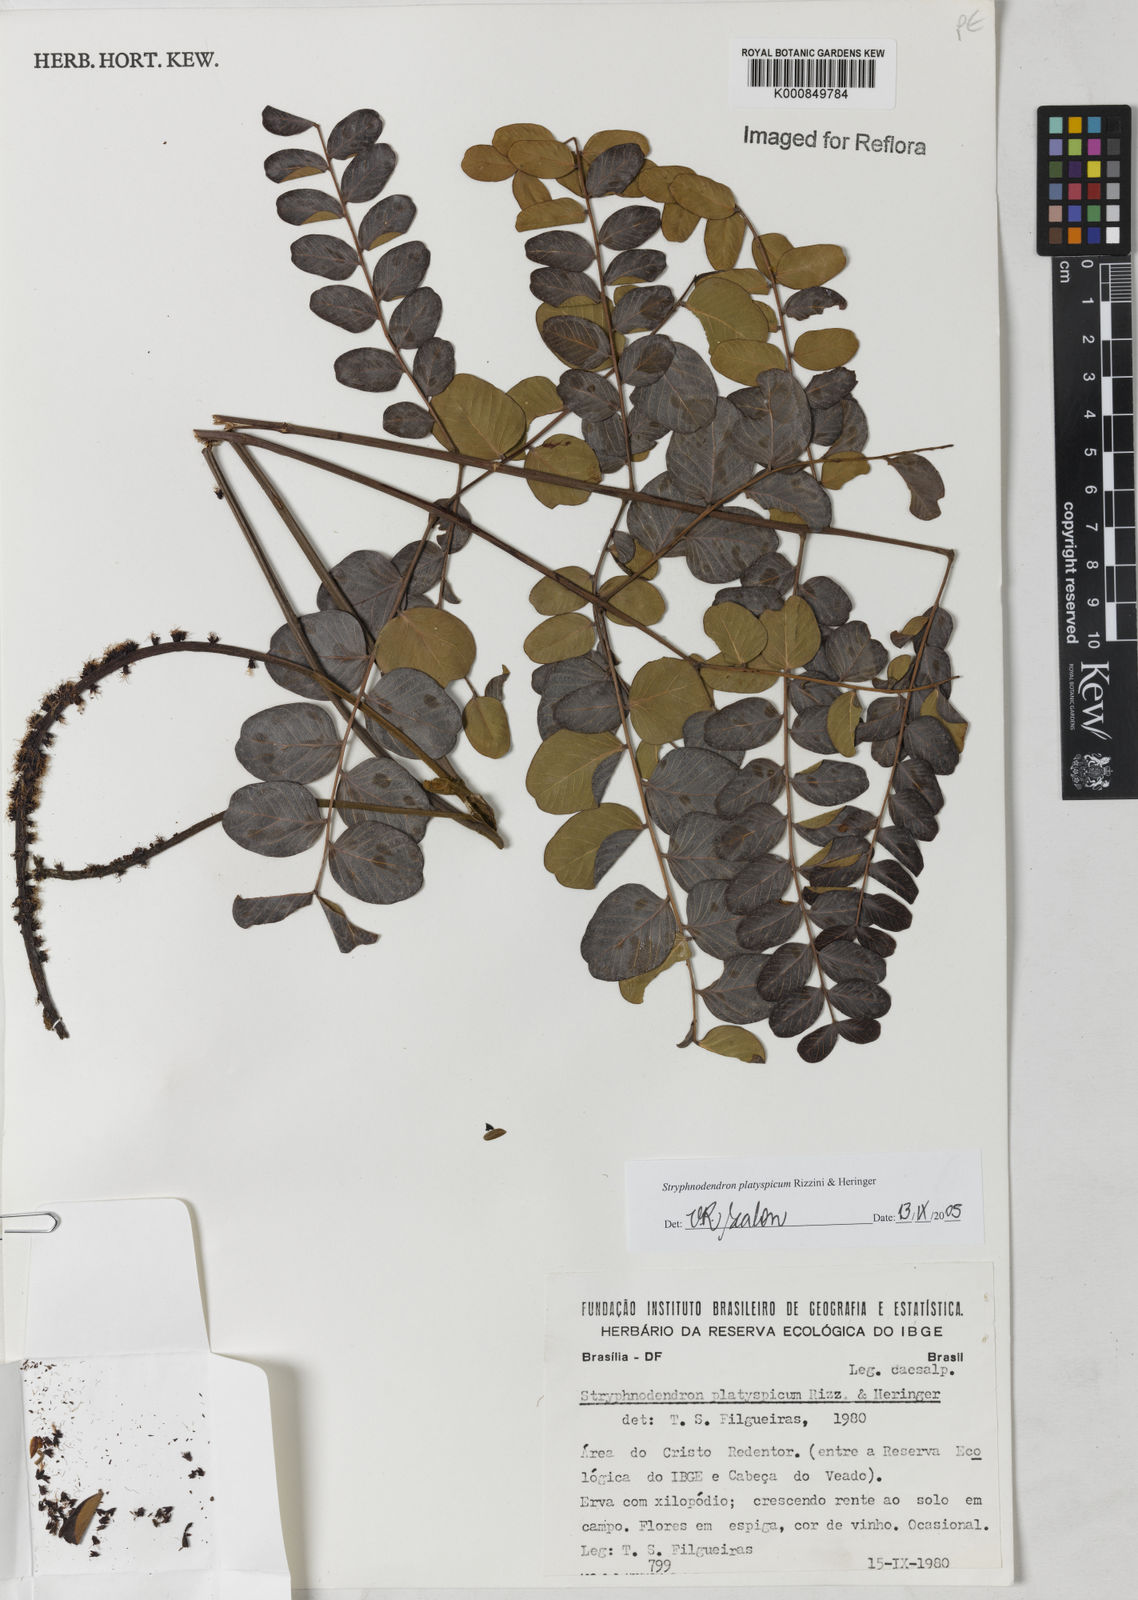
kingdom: Plantae
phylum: Tracheophyta
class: Magnoliopsida
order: Fabales
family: Fabaceae
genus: Stryphnodendron
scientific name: Stryphnodendron
